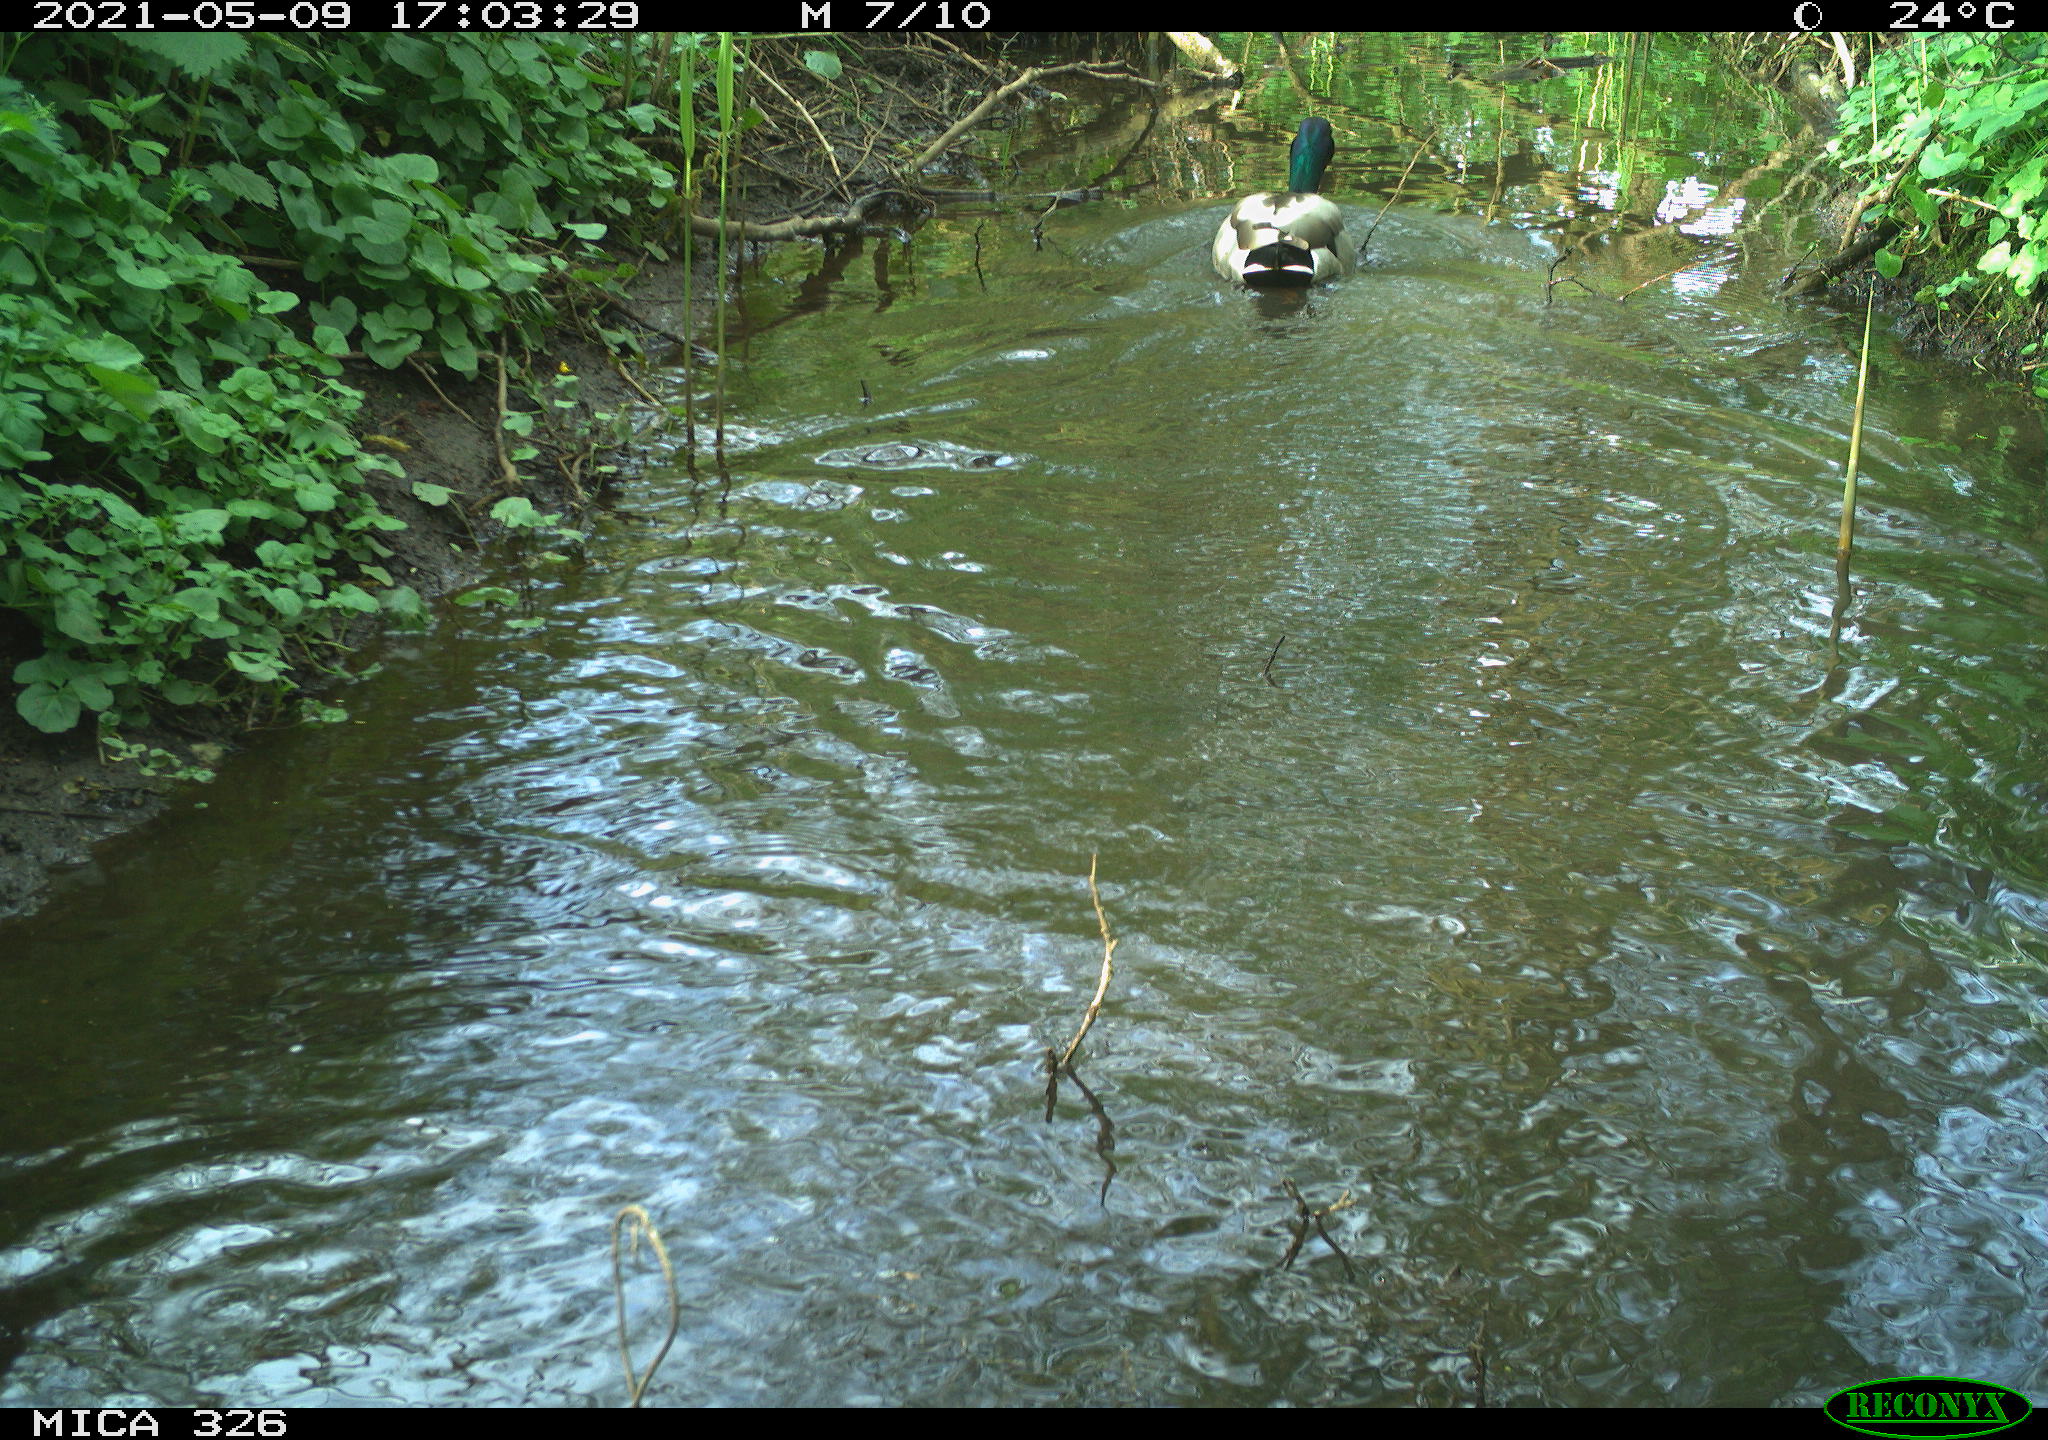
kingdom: Animalia
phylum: Chordata
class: Aves
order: Anseriformes
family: Anatidae
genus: Anas
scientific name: Anas platyrhynchos
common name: Mallard
